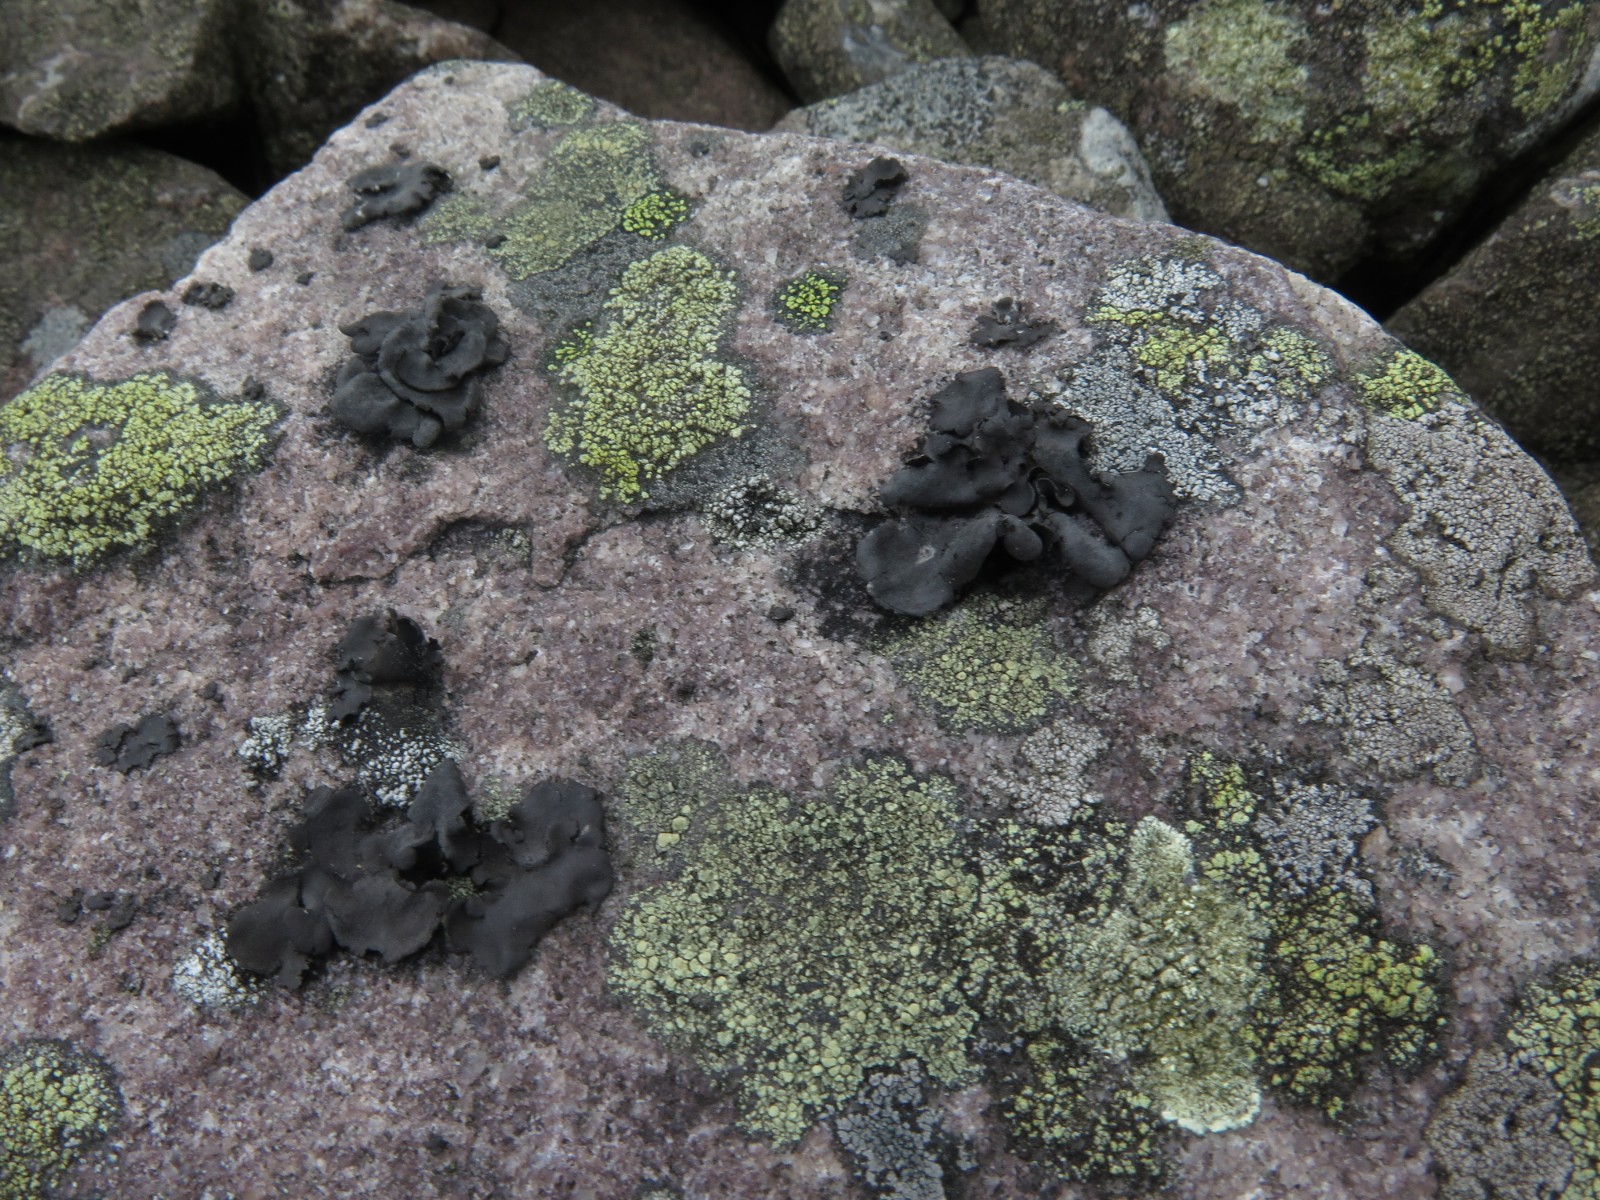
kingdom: Fungi
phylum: Ascomycota
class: Lecanoromycetes
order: Umbilicariales
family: Umbilicariaceae
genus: Umbilicaria
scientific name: Umbilicaria polyphylla
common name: glat navlelav
